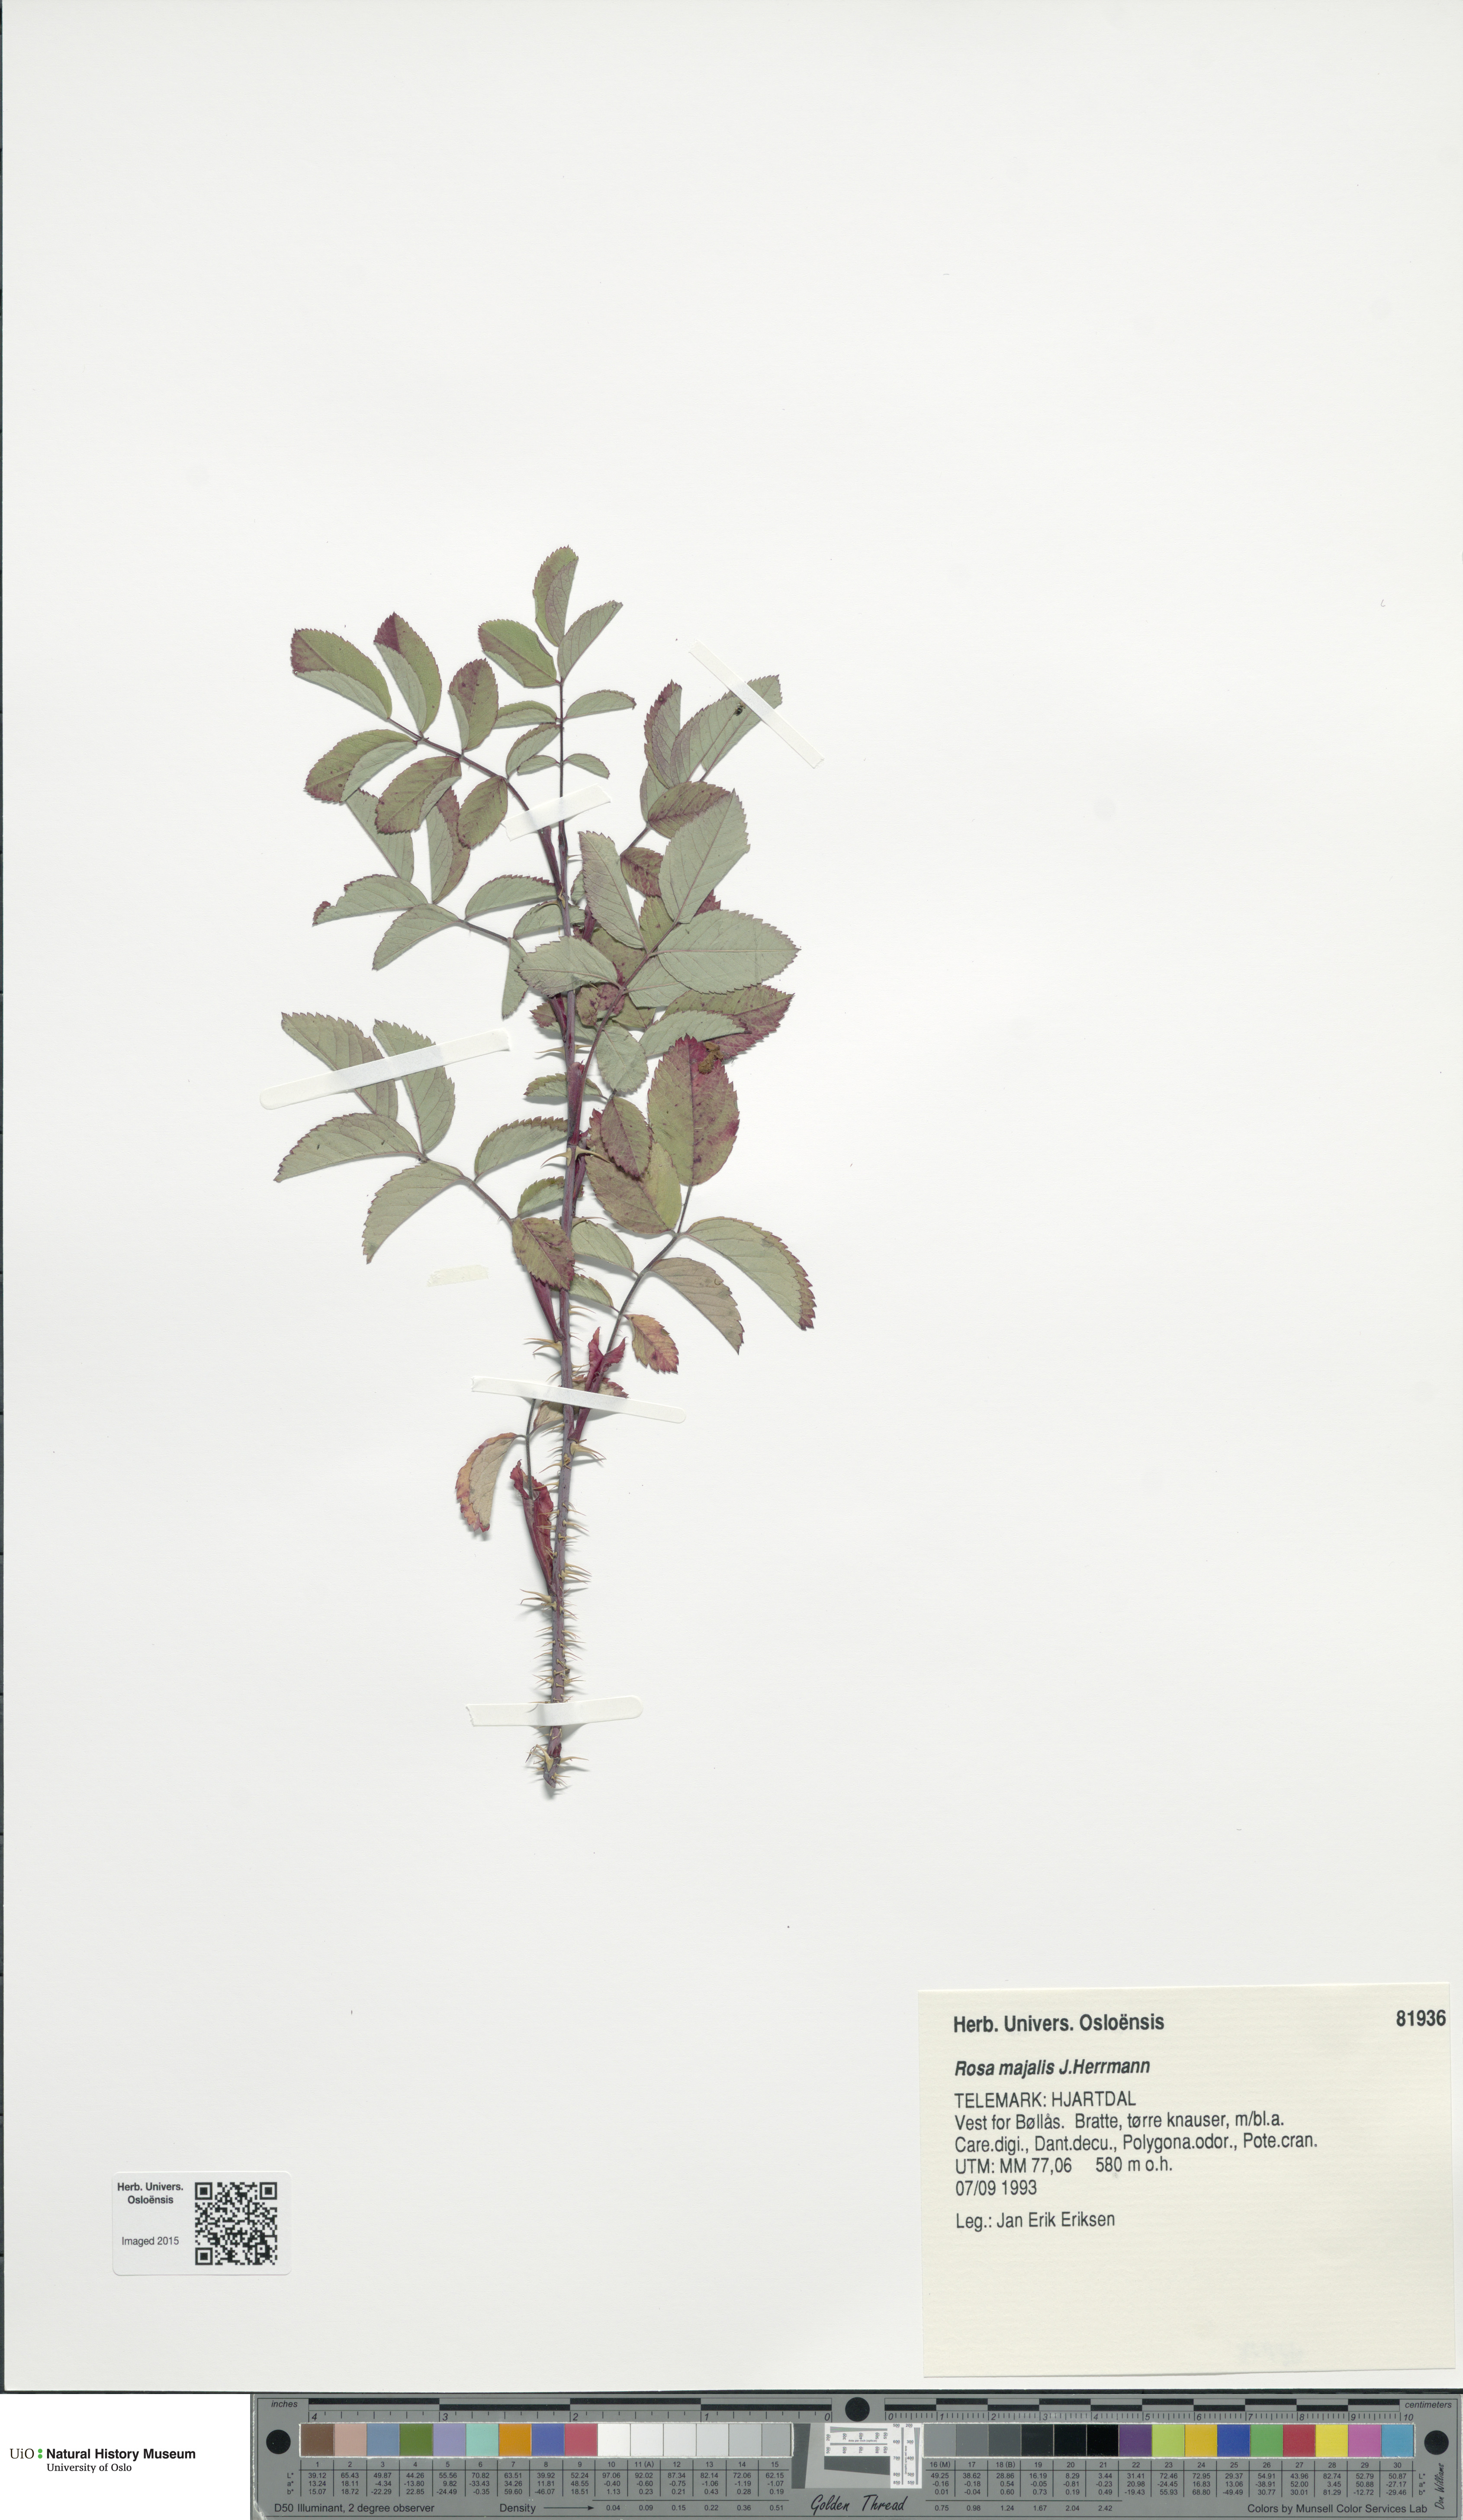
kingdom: Plantae
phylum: Tracheophyta
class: Magnoliopsida
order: Rosales
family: Rosaceae
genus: Rosa
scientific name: Rosa majalis
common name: Cinnamon rose
